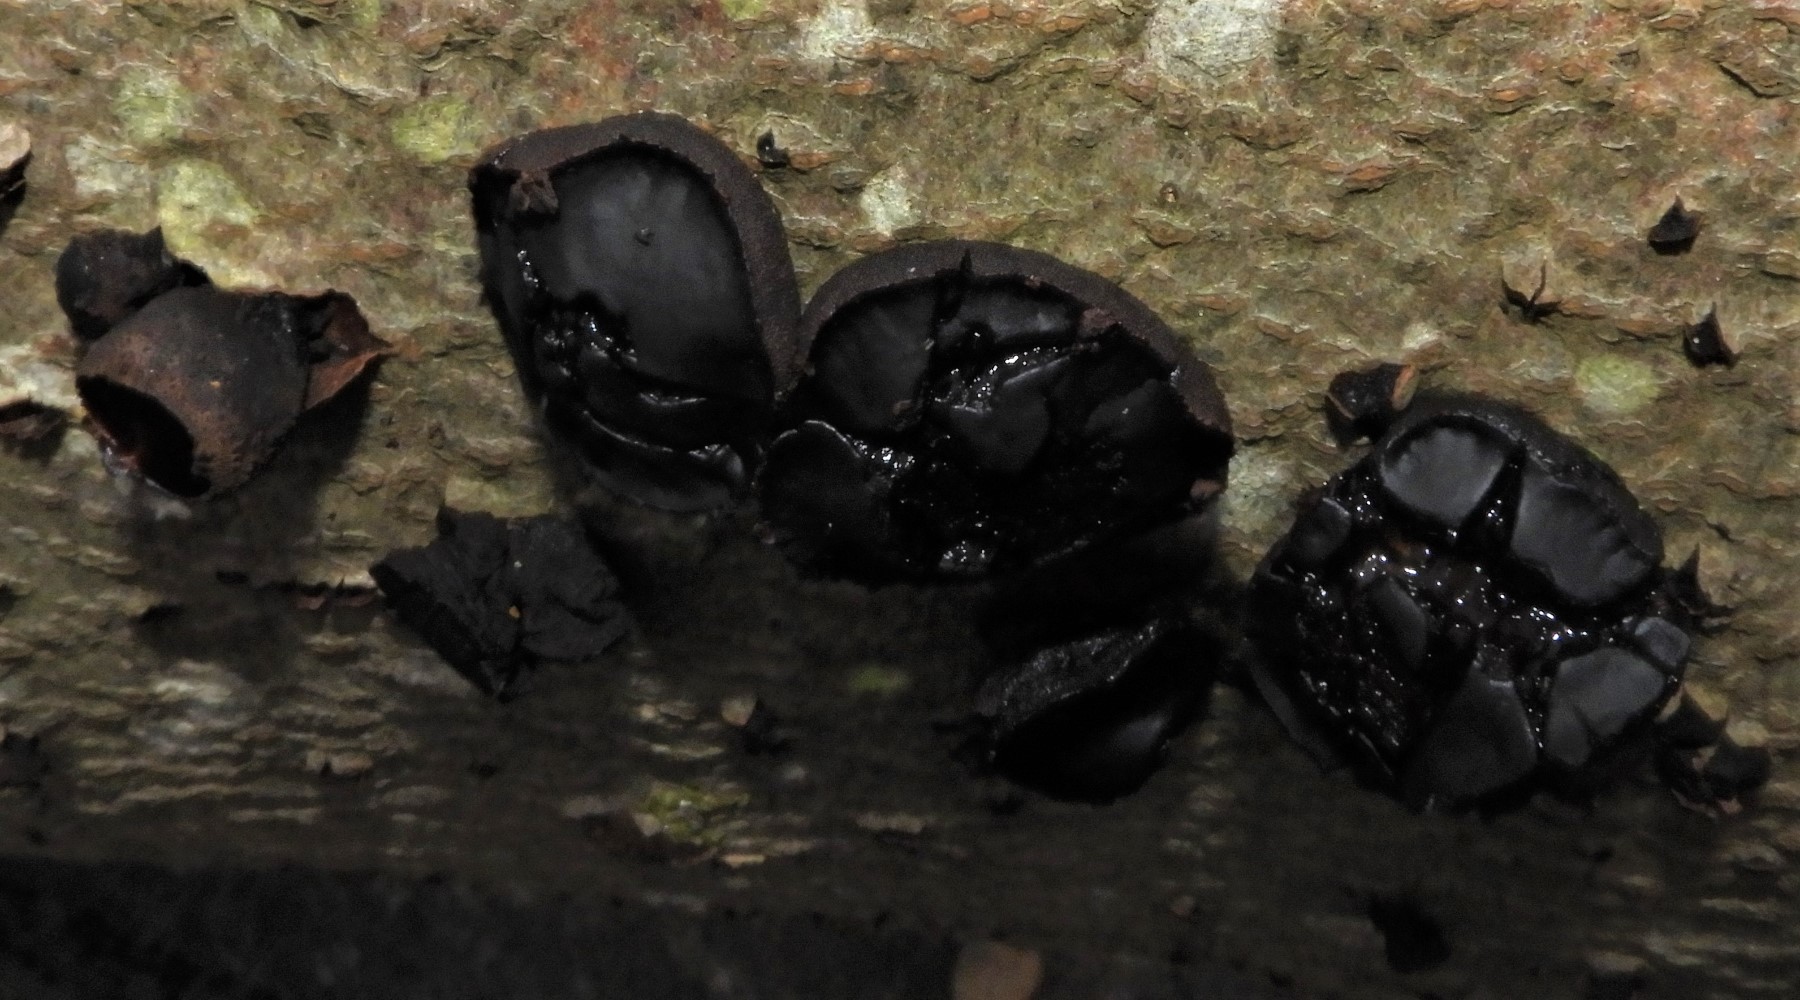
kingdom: Fungi
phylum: Ascomycota
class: Leotiomycetes
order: Phacidiales
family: Phacidiaceae
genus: Bulgaria
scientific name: Bulgaria inquinans
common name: afsmittende topsvamp
